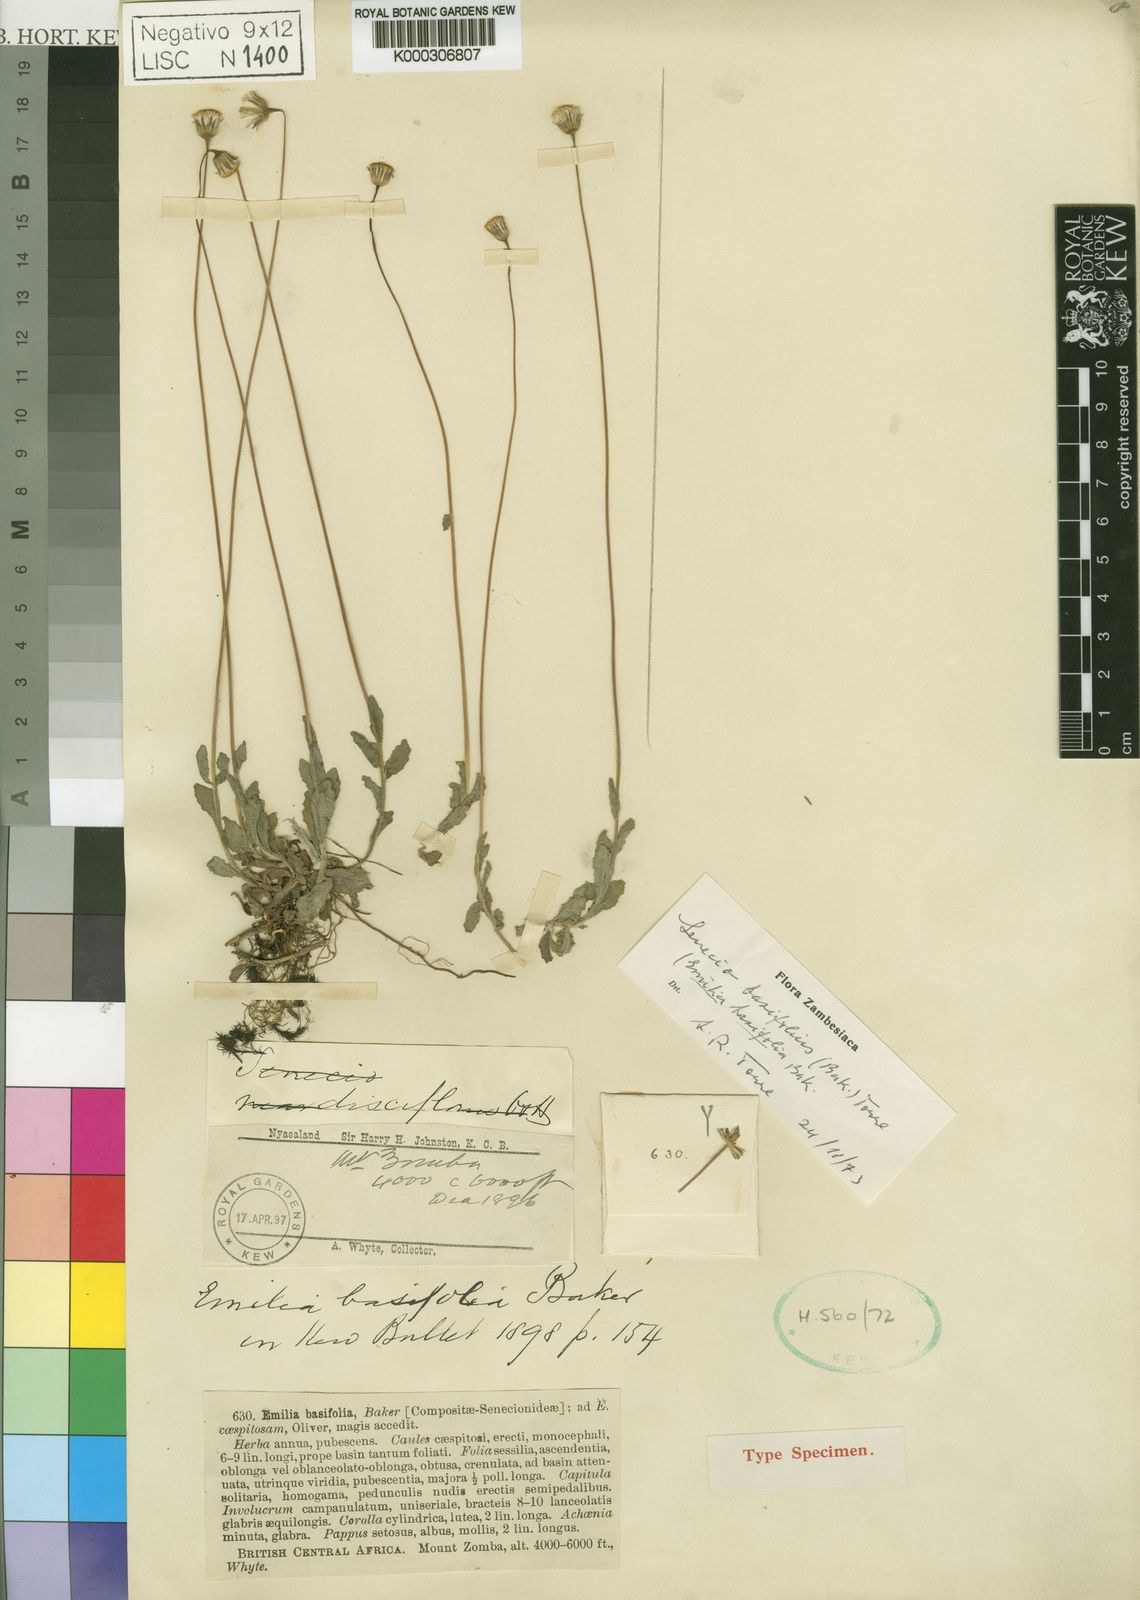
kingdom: Plantae
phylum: Tracheophyta
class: Magnoliopsida
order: Asterales
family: Asteraceae
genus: Emilia
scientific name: Emilia basifolia
